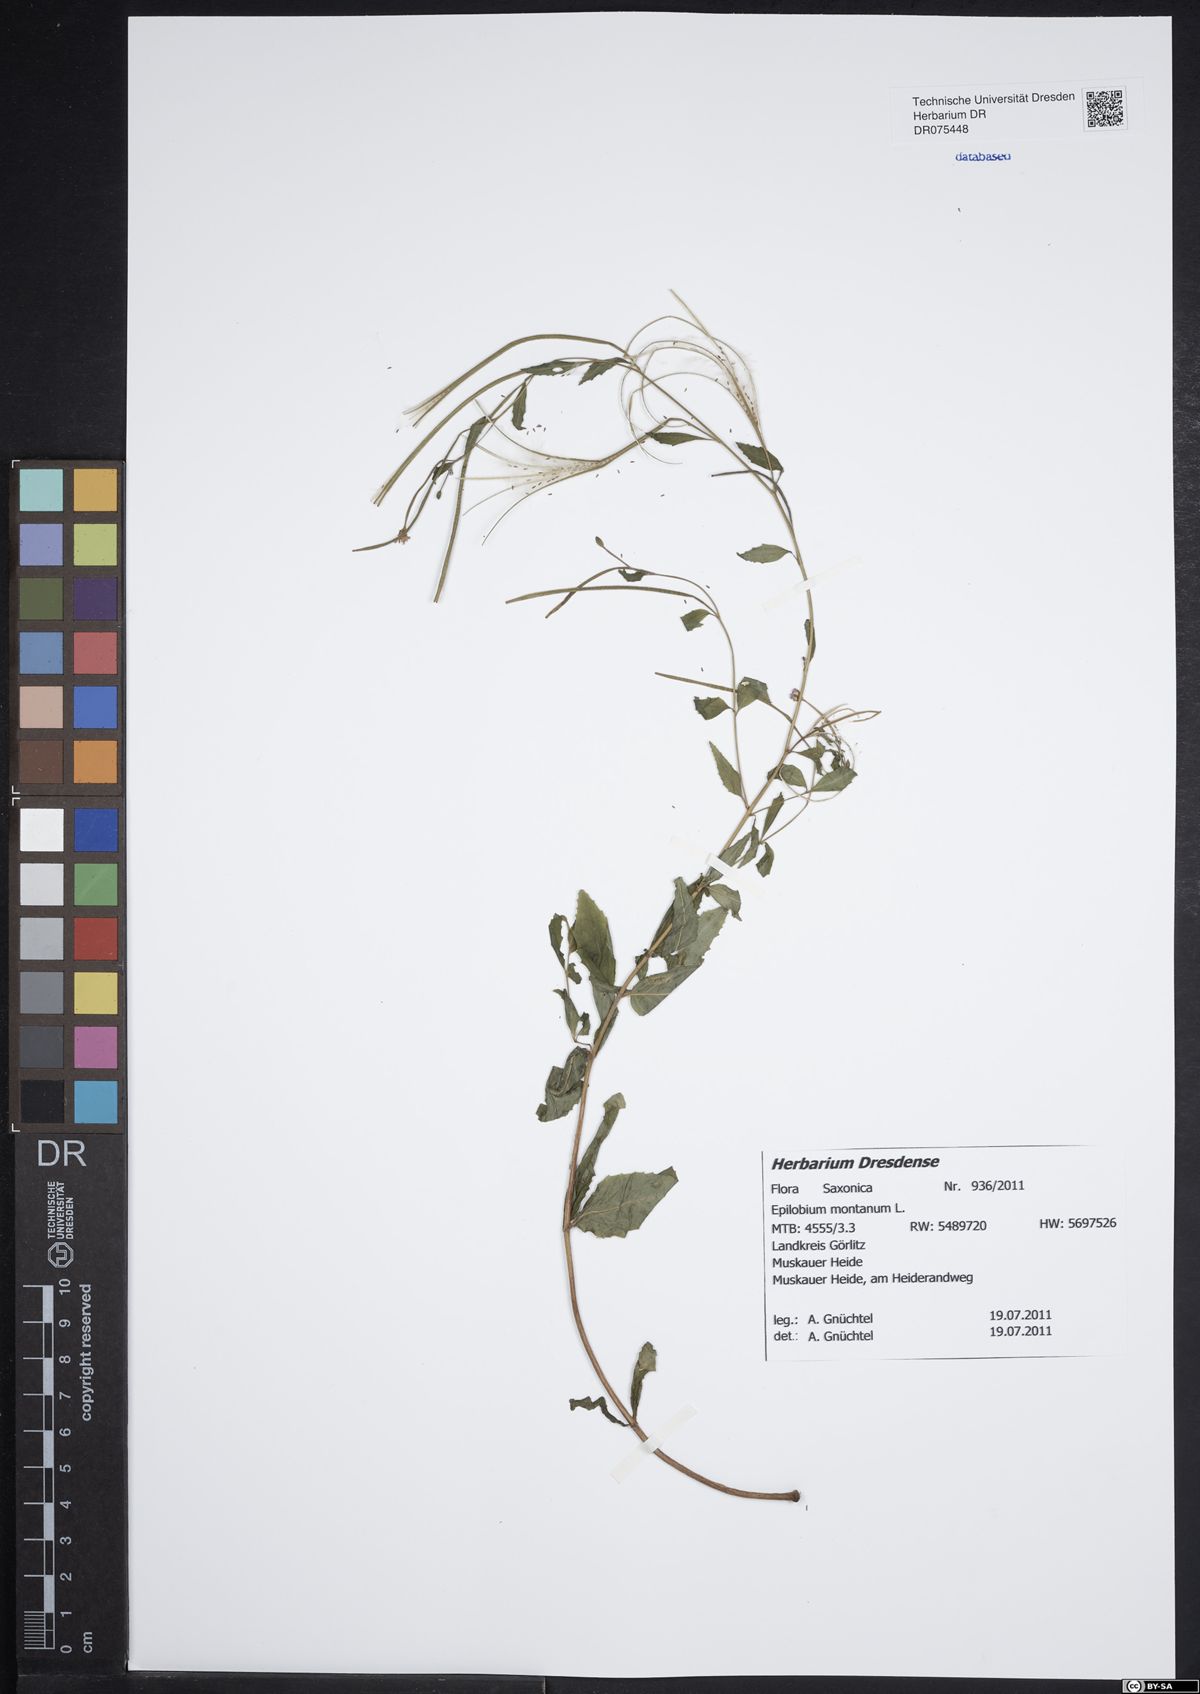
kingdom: Plantae
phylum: Tracheophyta
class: Magnoliopsida
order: Myrtales
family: Onagraceae
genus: Epilobium
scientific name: Epilobium montanum
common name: Broad-leaved willowherb
